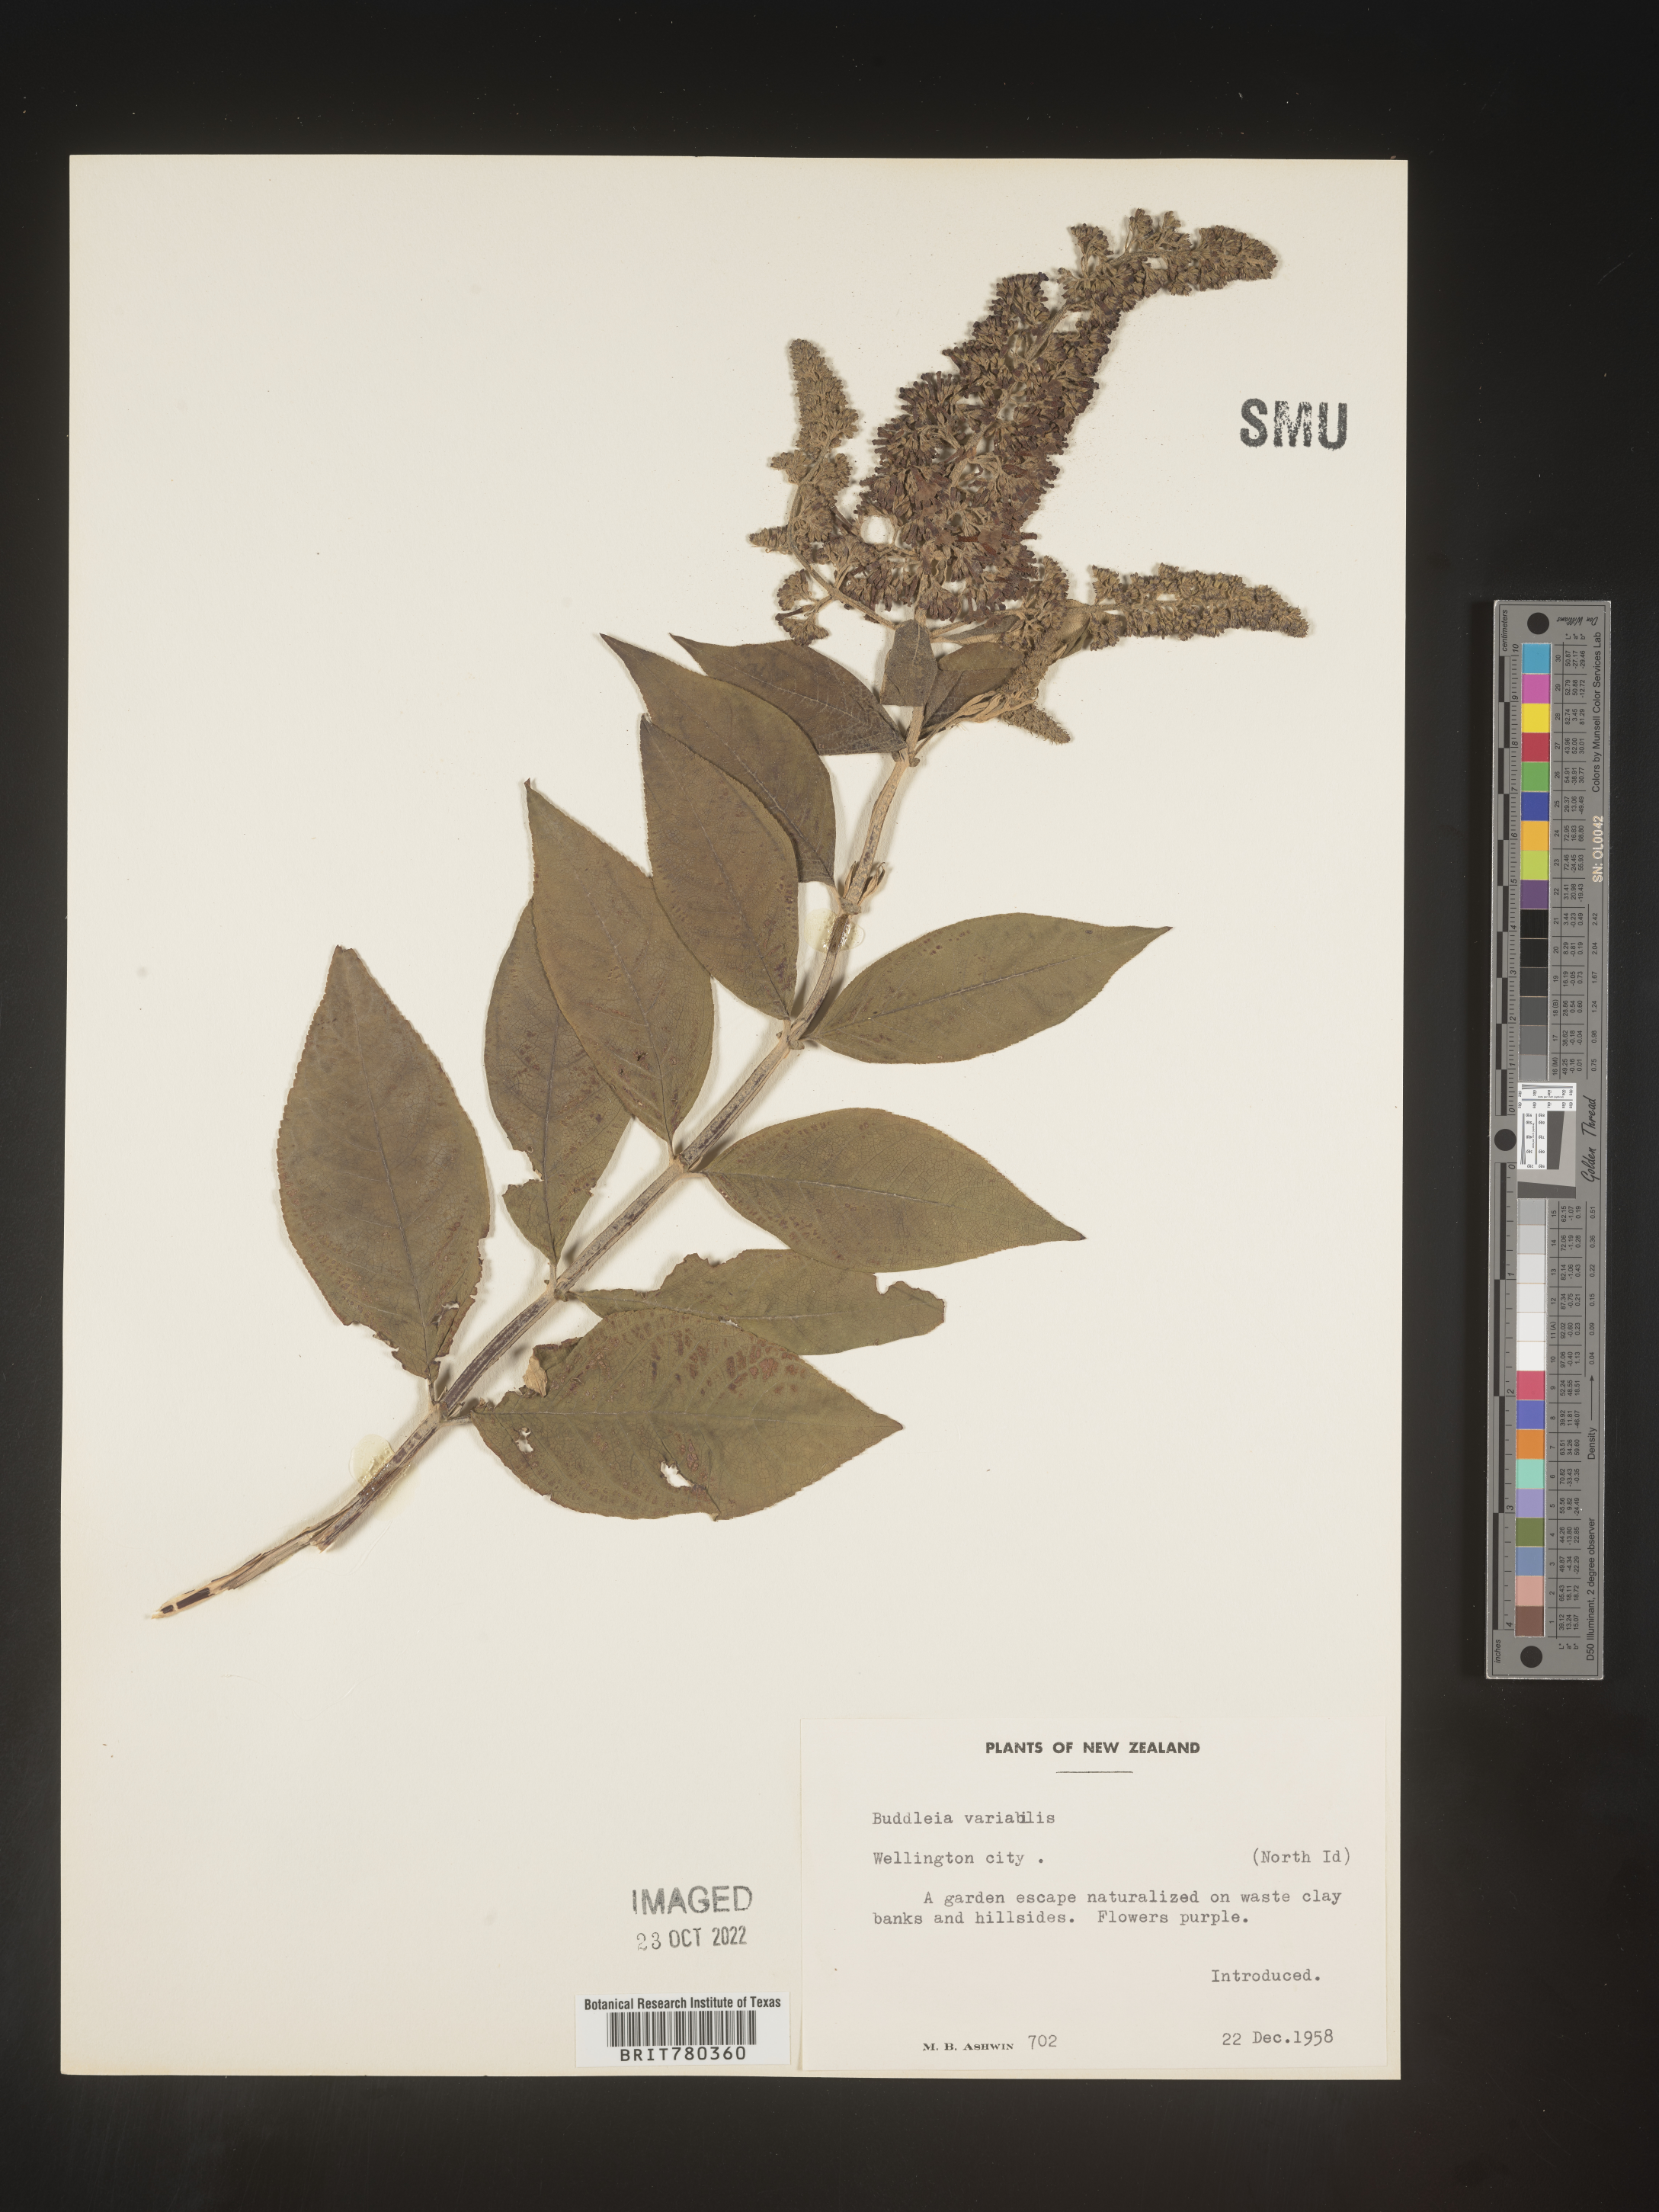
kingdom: Plantae
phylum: Tracheophyta
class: Magnoliopsida
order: Lamiales
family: Scrophulariaceae
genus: Buddleja
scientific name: Buddleja
